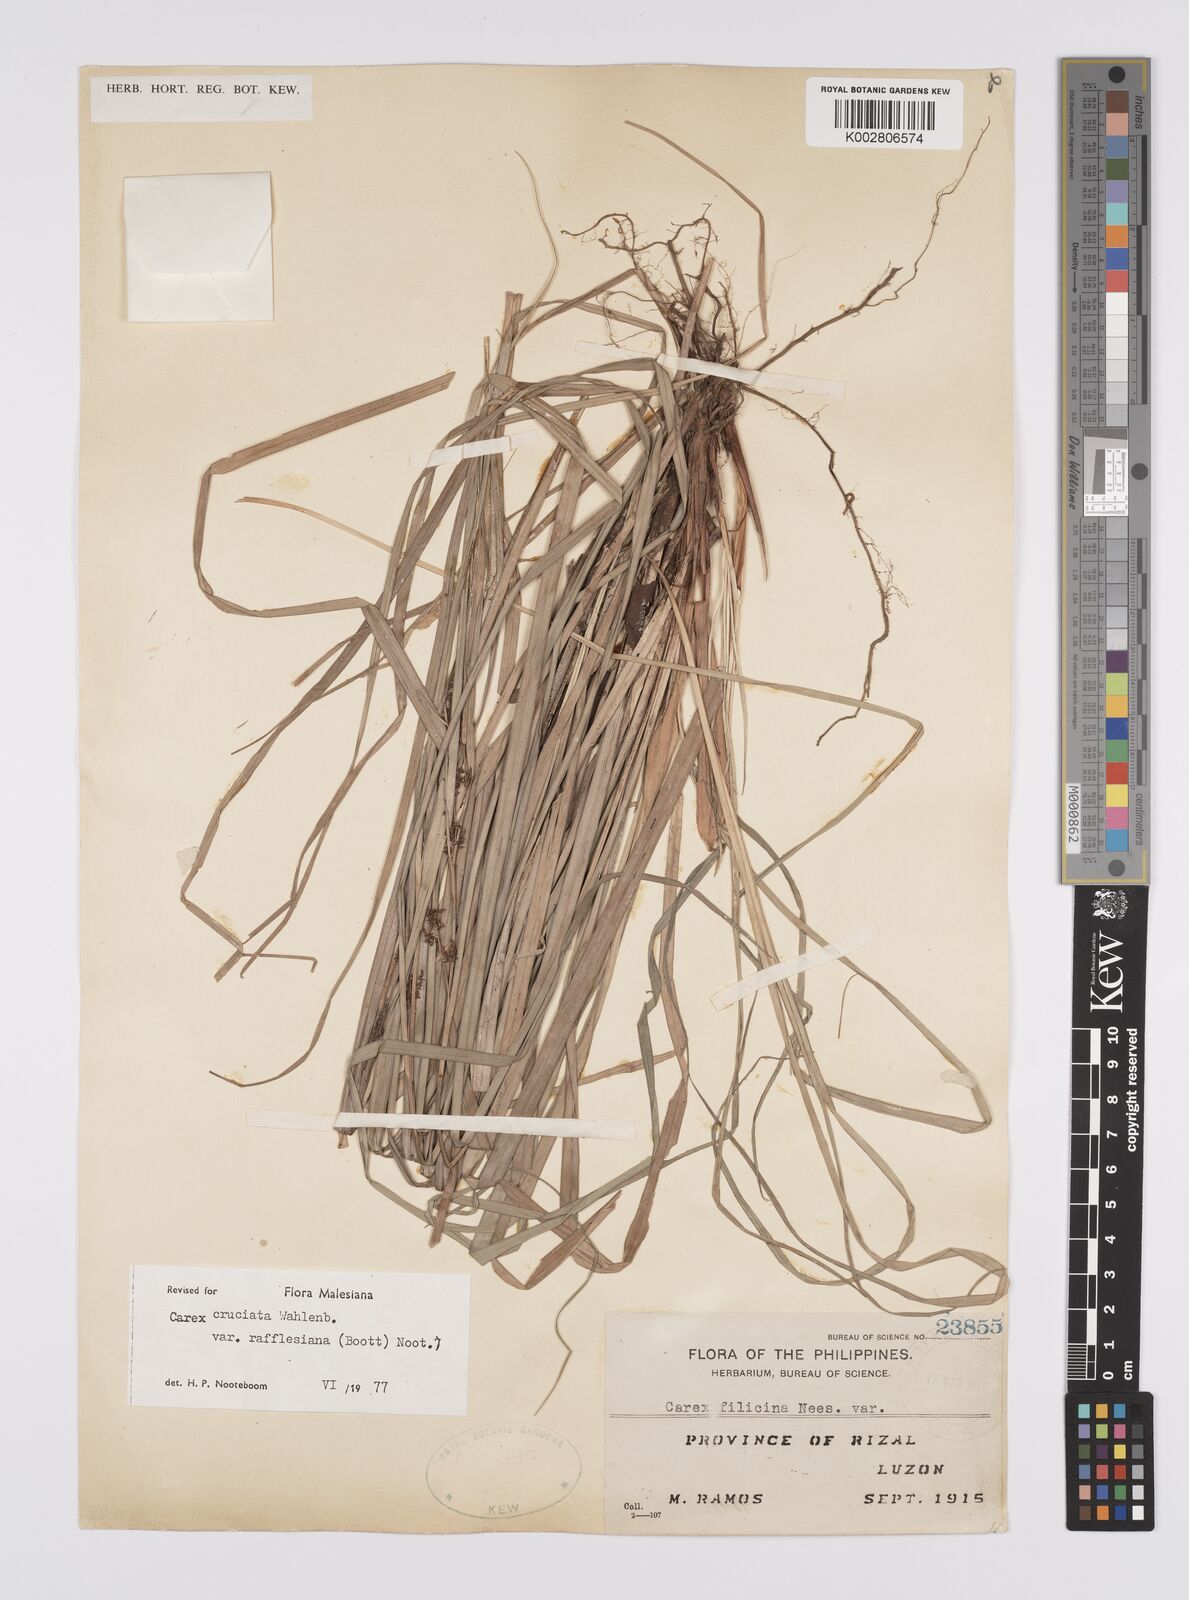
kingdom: Plantae
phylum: Tracheophyta
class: Liliopsida
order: Poales
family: Cyperaceae
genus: Carex
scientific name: Carex rafflesiana
